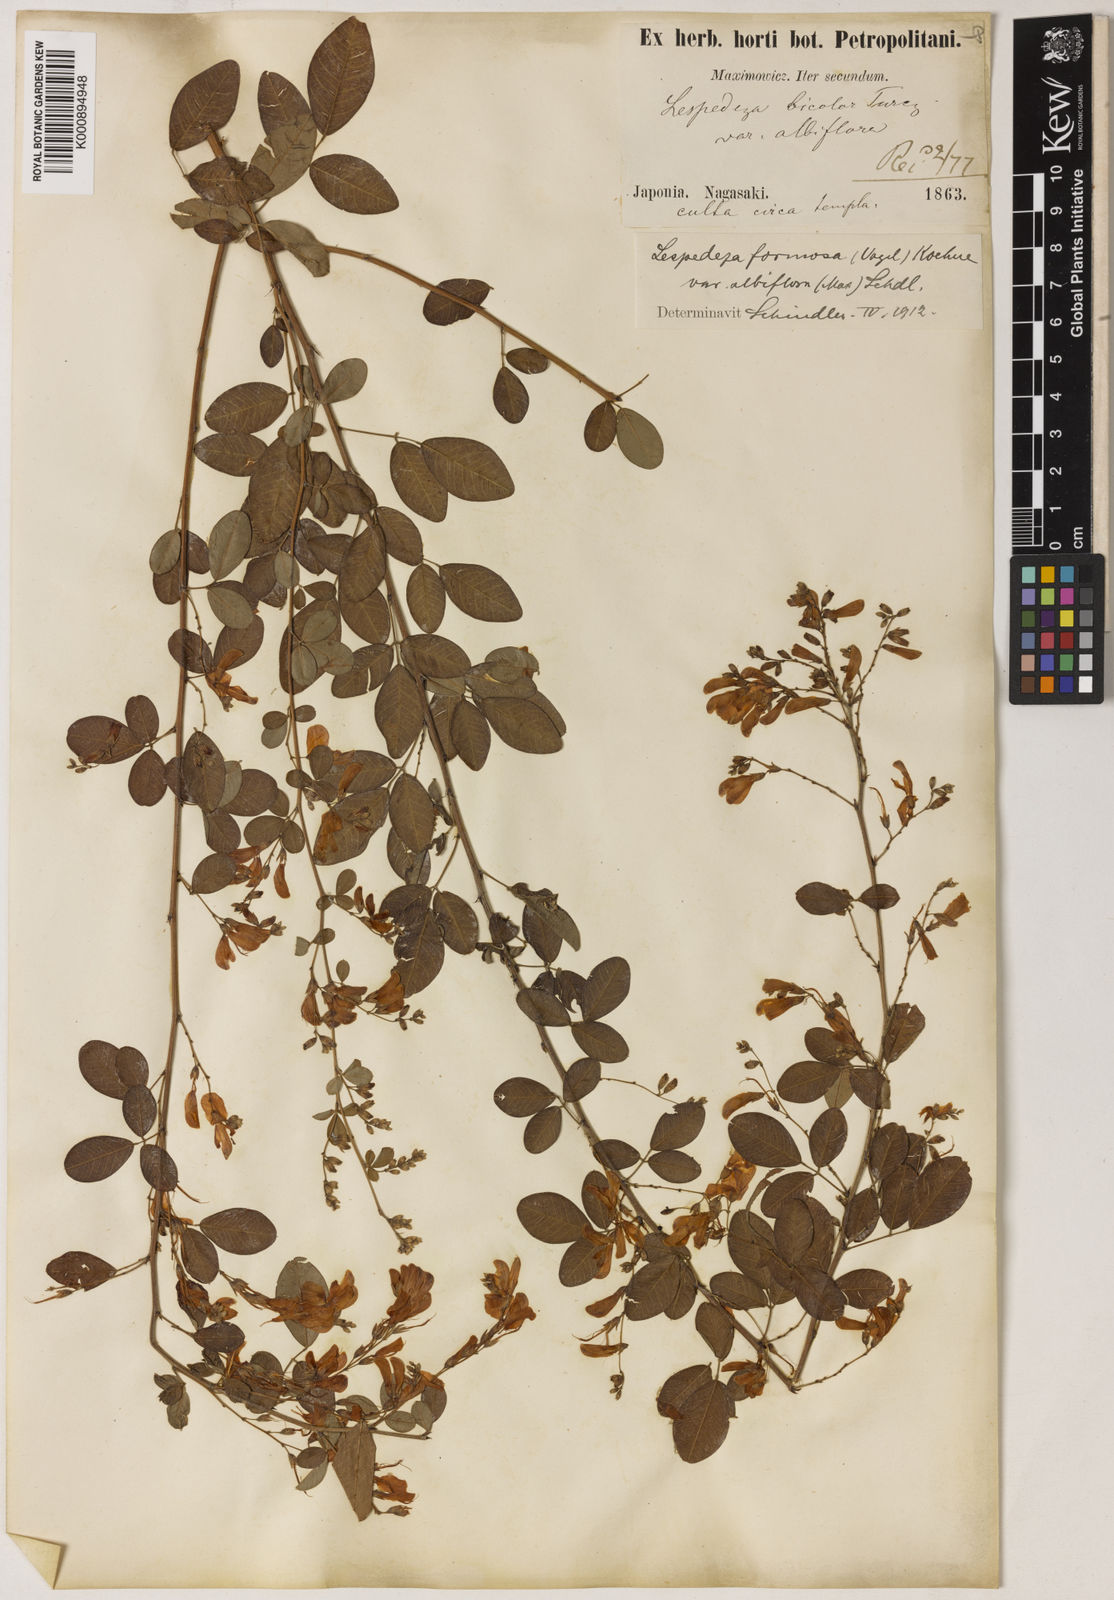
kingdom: Plantae
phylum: Tracheophyta
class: Magnoliopsida
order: Fabales
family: Fabaceae
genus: Lespedeza
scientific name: Lespedeza thunbergii
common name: Thunberg's lespedeza
